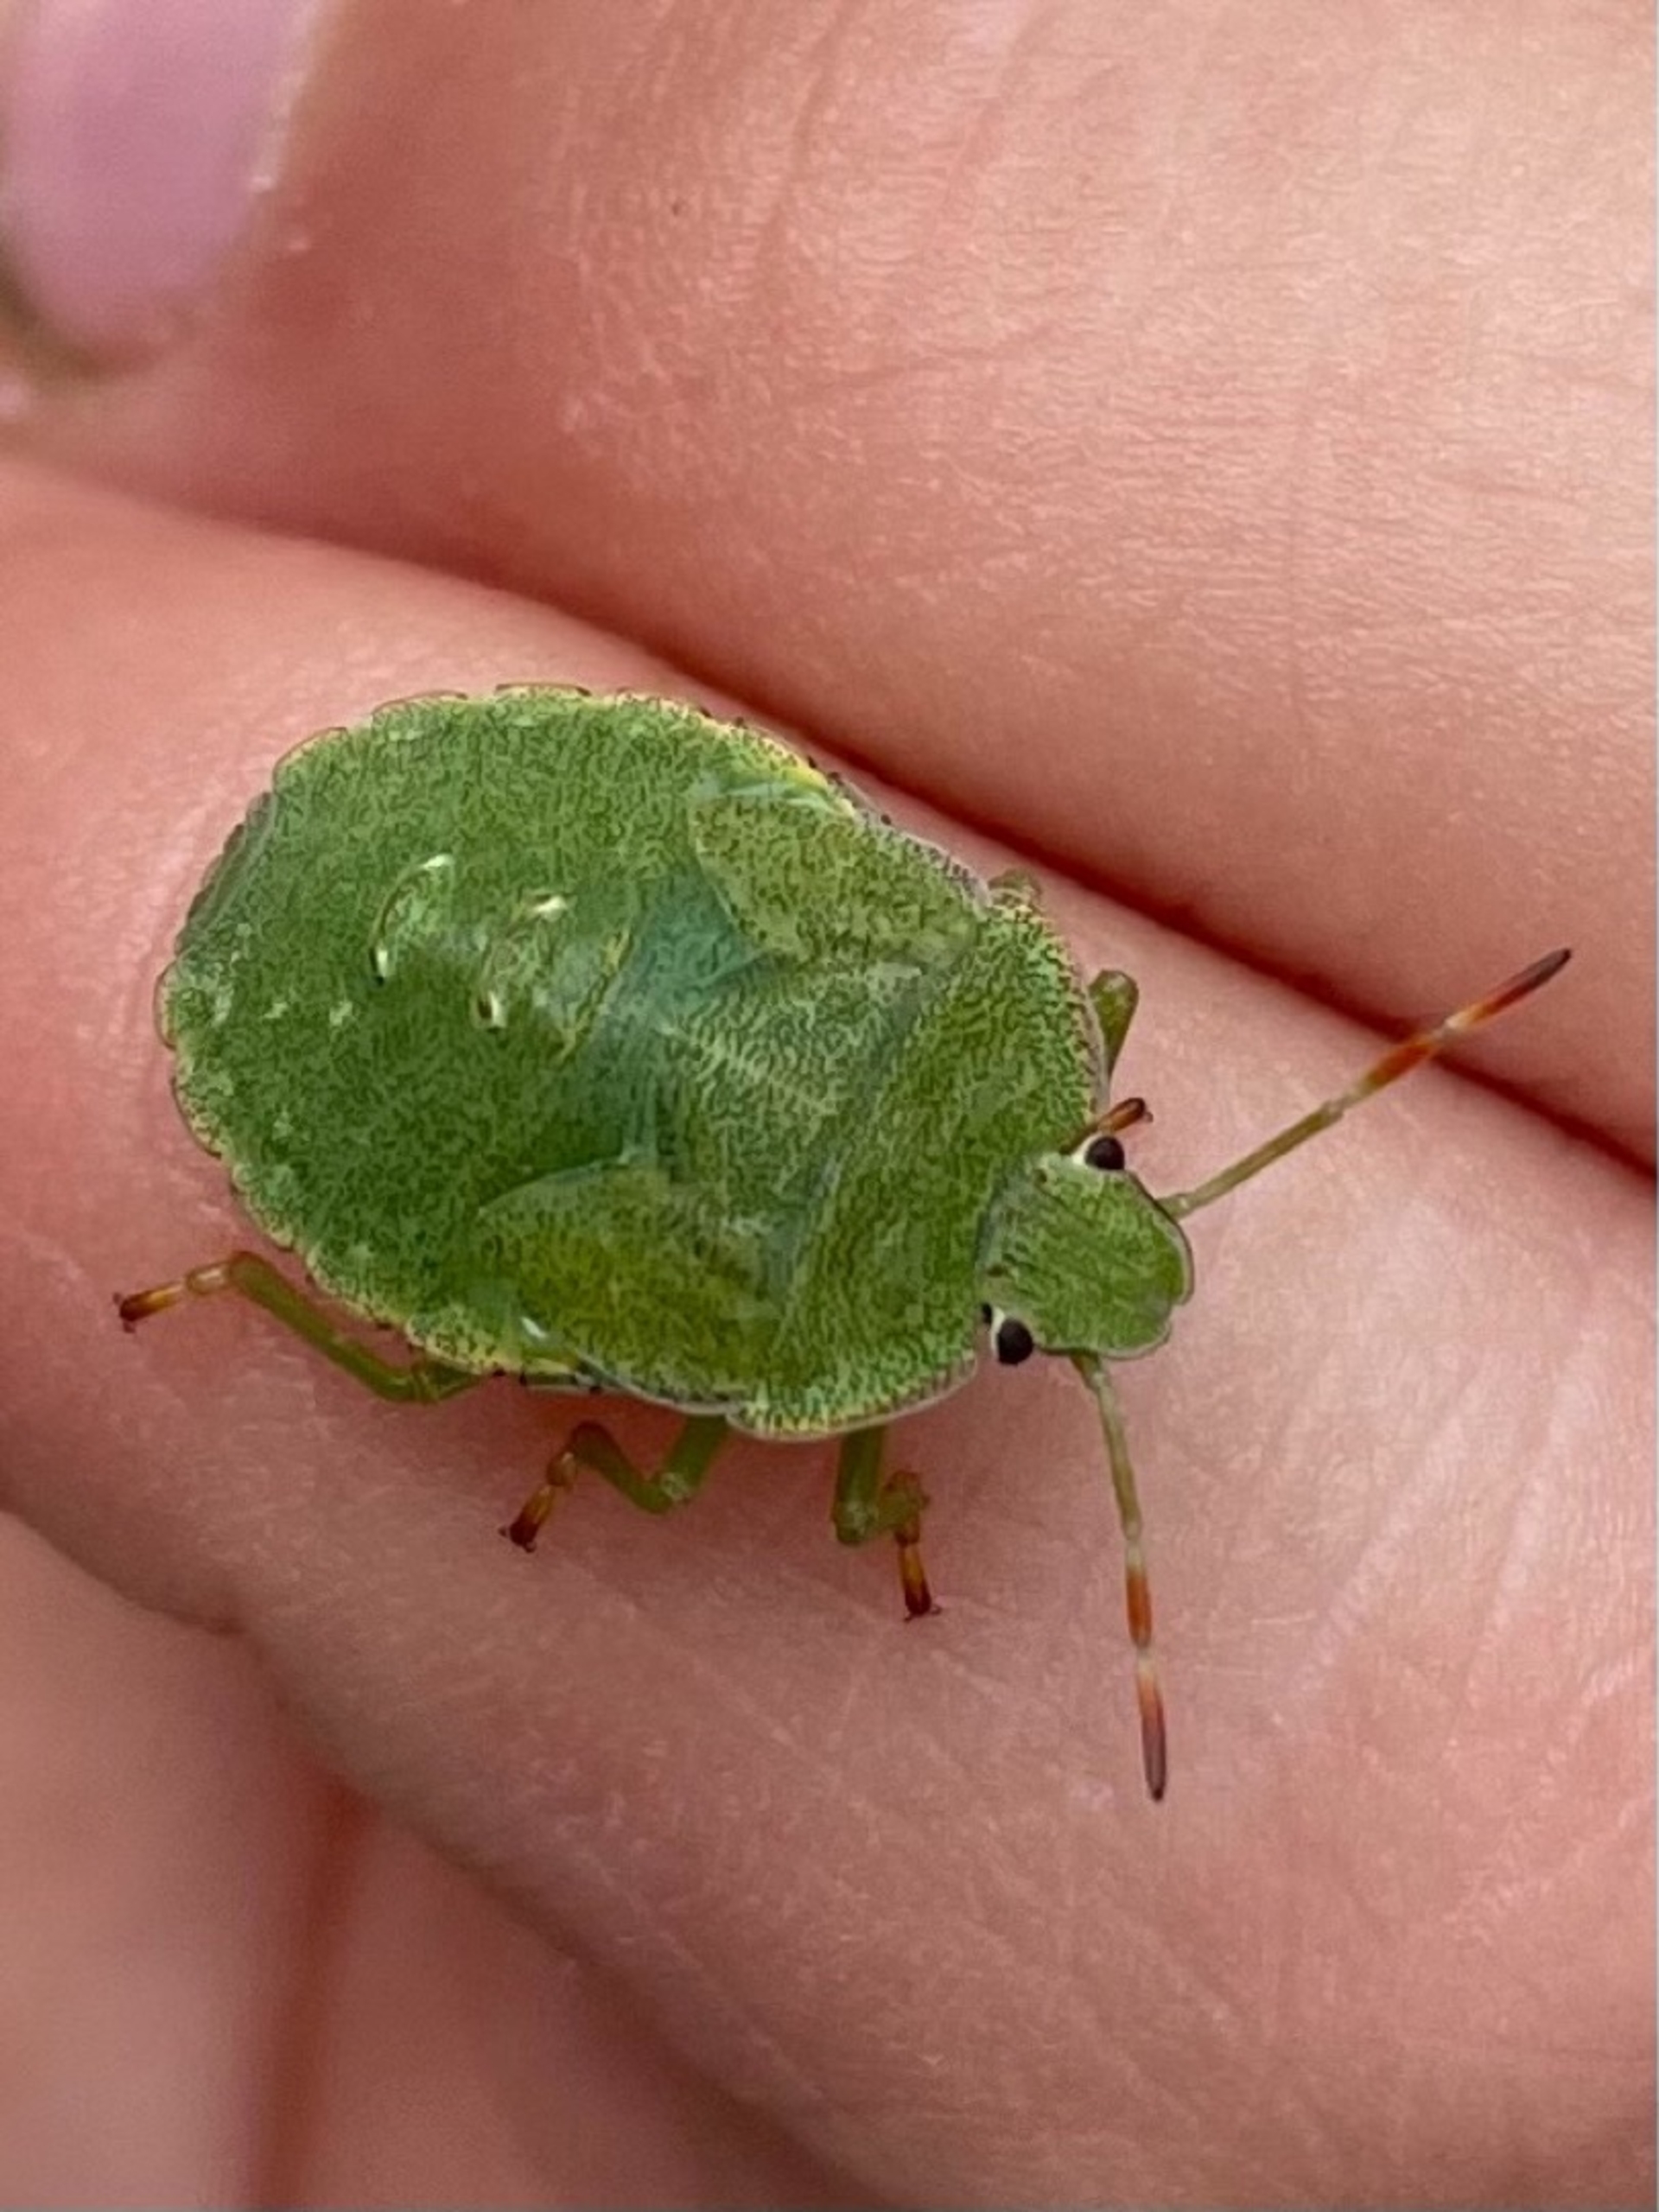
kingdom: Animalia
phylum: Arthropoda
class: Insecta
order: Hemiptera
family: Pentatomidae
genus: Palomena
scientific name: Palomena prasina
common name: Grøn bredtæge
